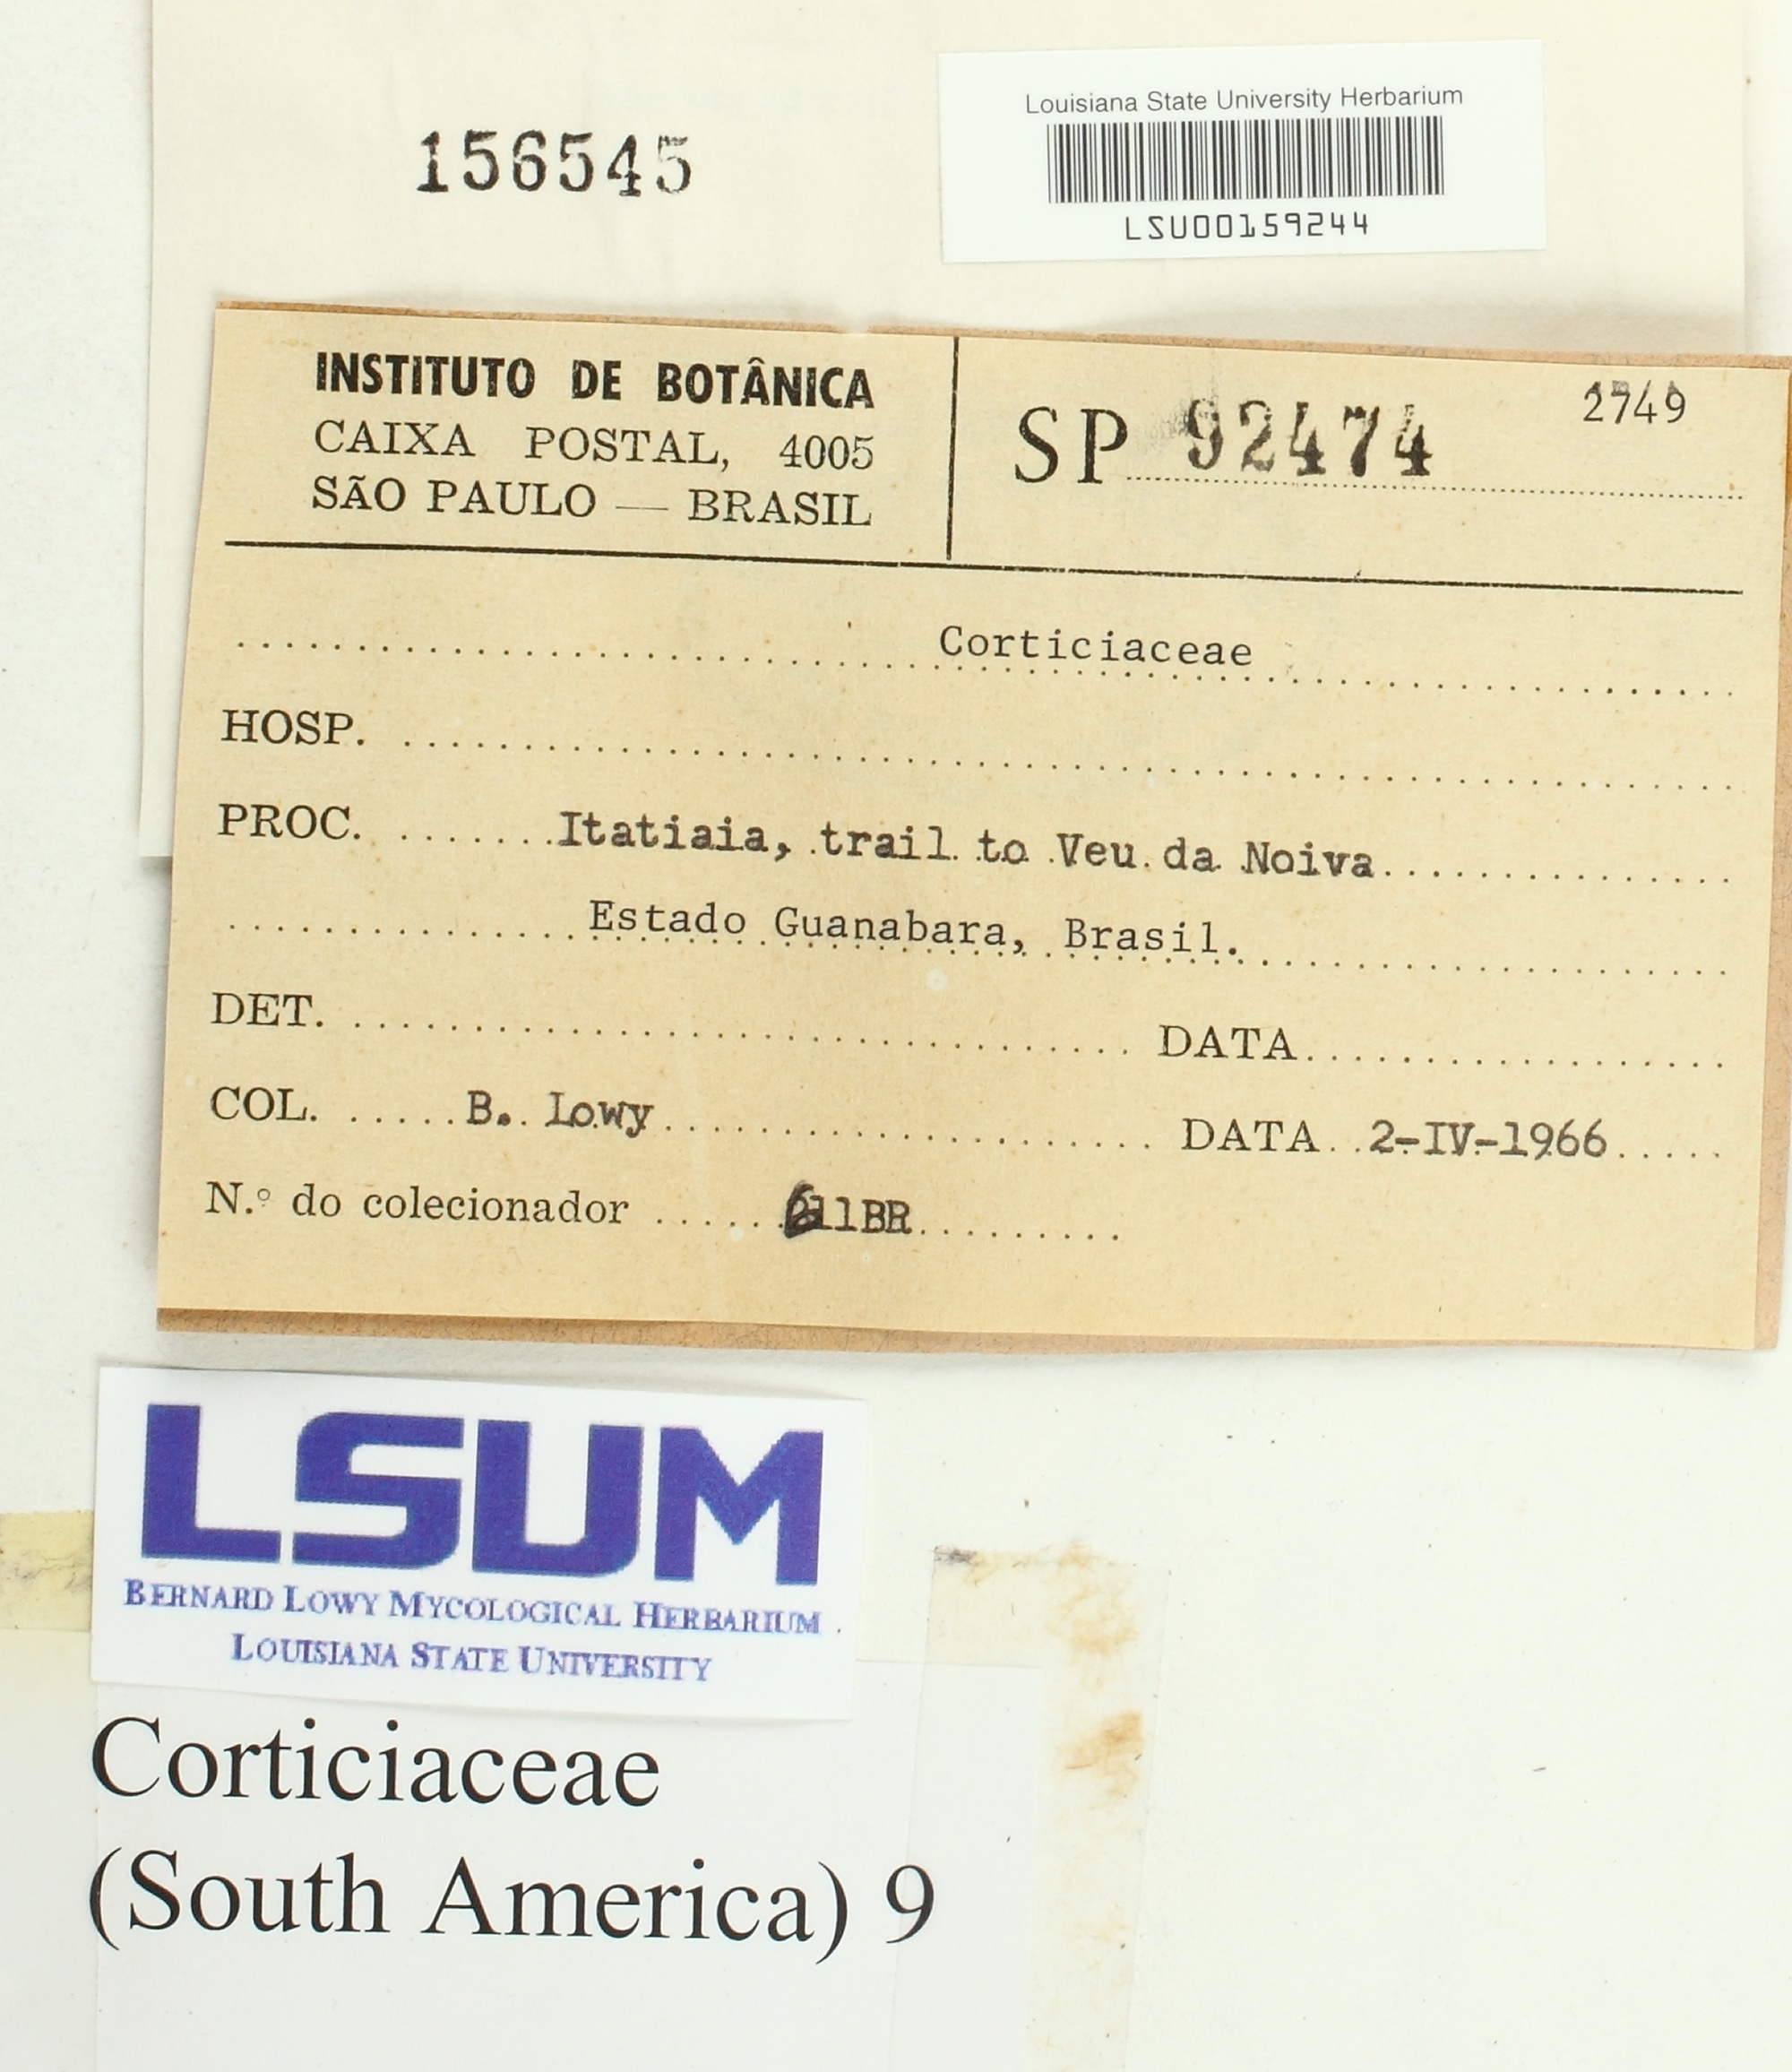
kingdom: Fungi
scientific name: Fungi
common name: Fungi
